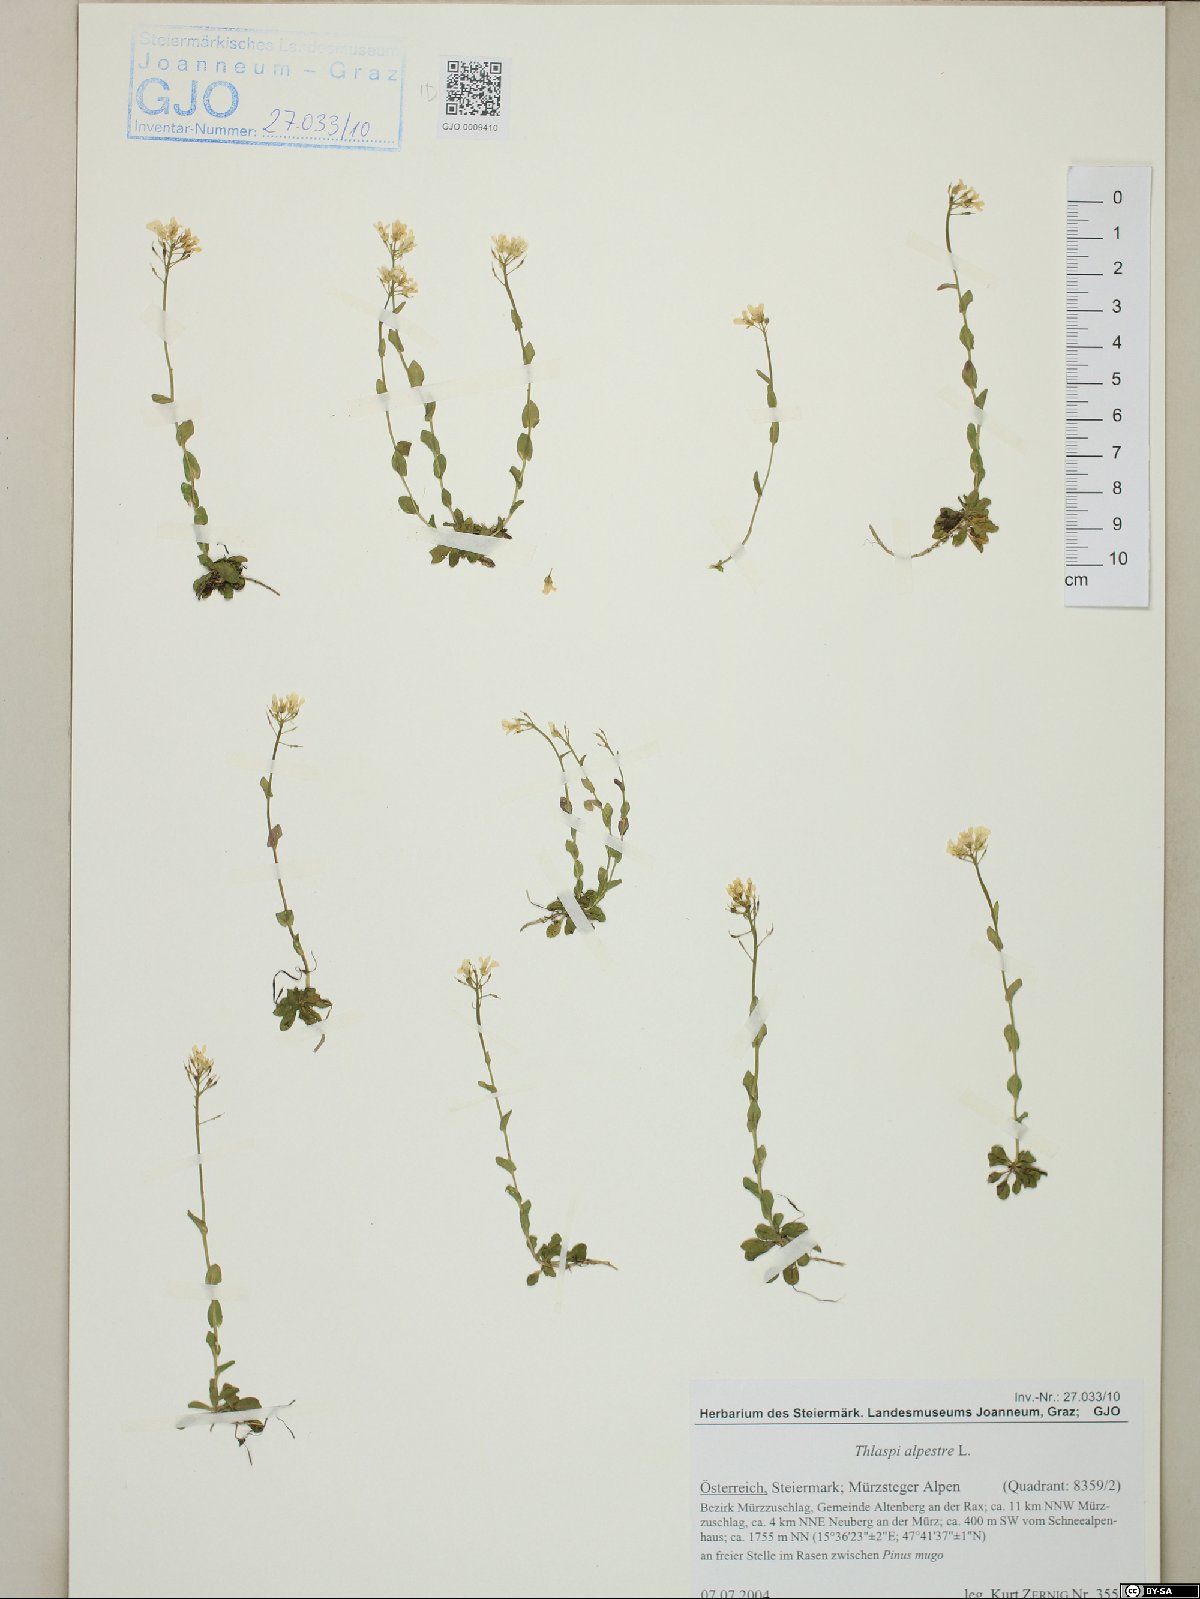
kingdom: Plantae
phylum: Tracheophyta
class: Magnoliopsida
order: Brassicales
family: Brassicaceae
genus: Noccaea
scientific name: Noccaea brachypetala
